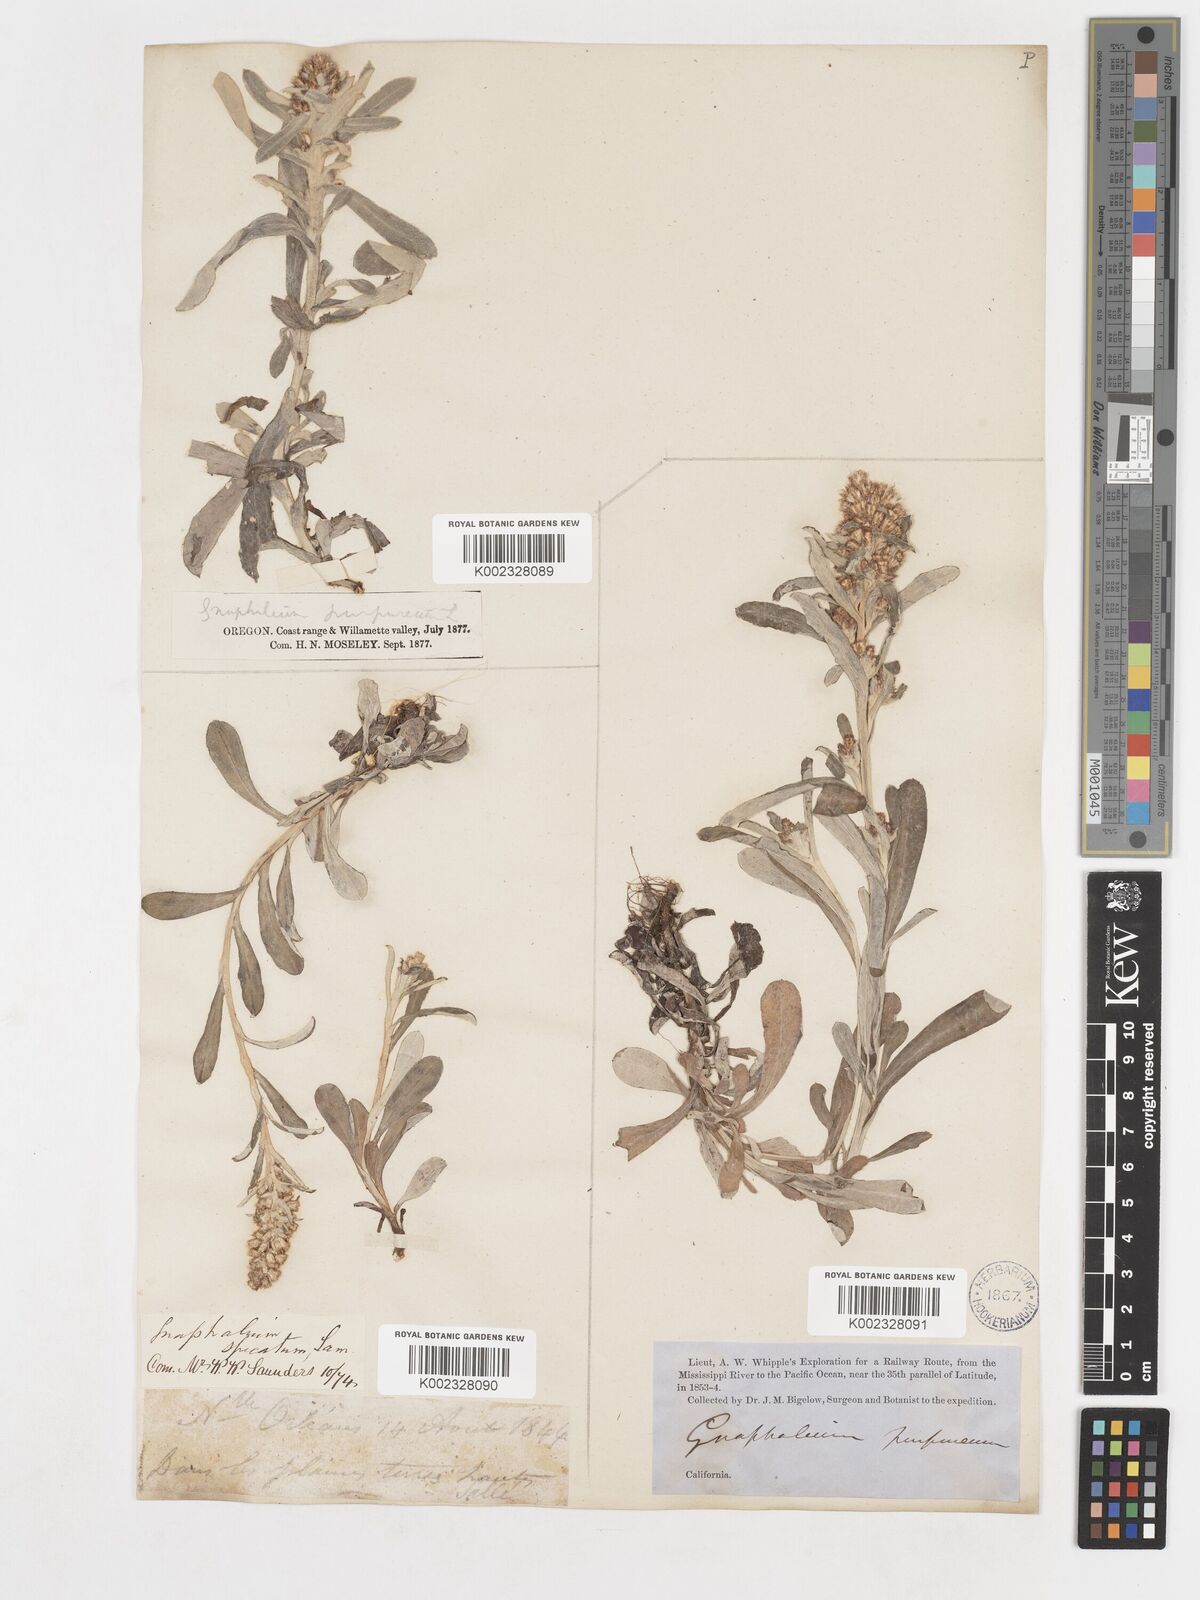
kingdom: Plantae
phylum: Tracheophyta
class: Magnoliopsida
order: Asterales
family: Asteraceae
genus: Gamochaeta
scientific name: Gamochaeta purpurea
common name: Purple cudweed
